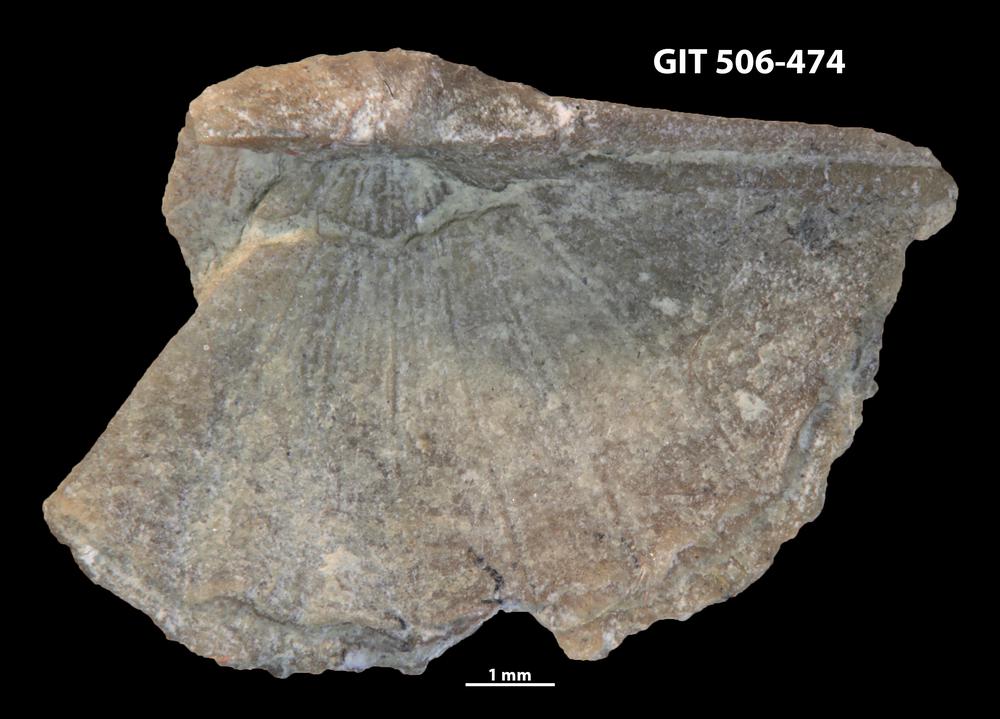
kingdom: Animalia
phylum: Brachiopoda
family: Sowerbyellidae
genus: Ygerodiscus
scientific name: Ygerodiscus Eoplectodonta bella
